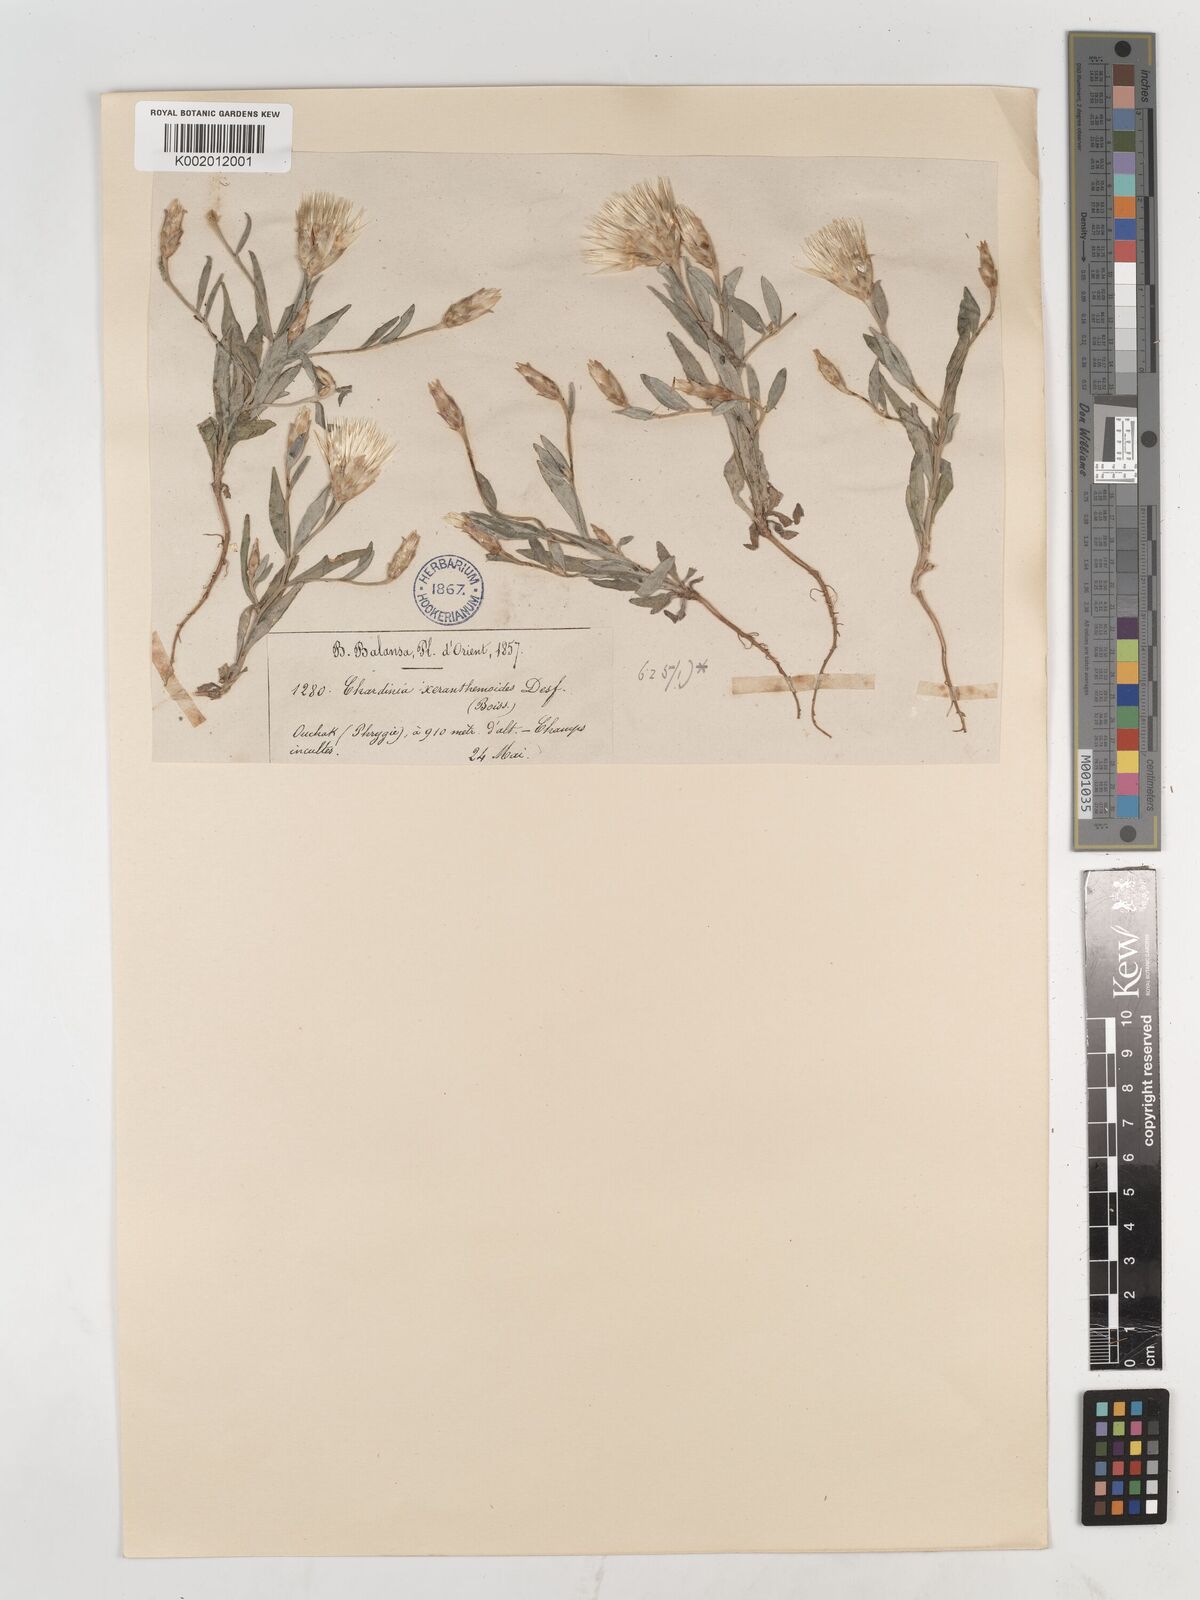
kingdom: Plantae
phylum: Tracheophyta
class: Magnoliopsida
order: Asterales
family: Asteraceae
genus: Chardinia
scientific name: Chardinia orientalis
